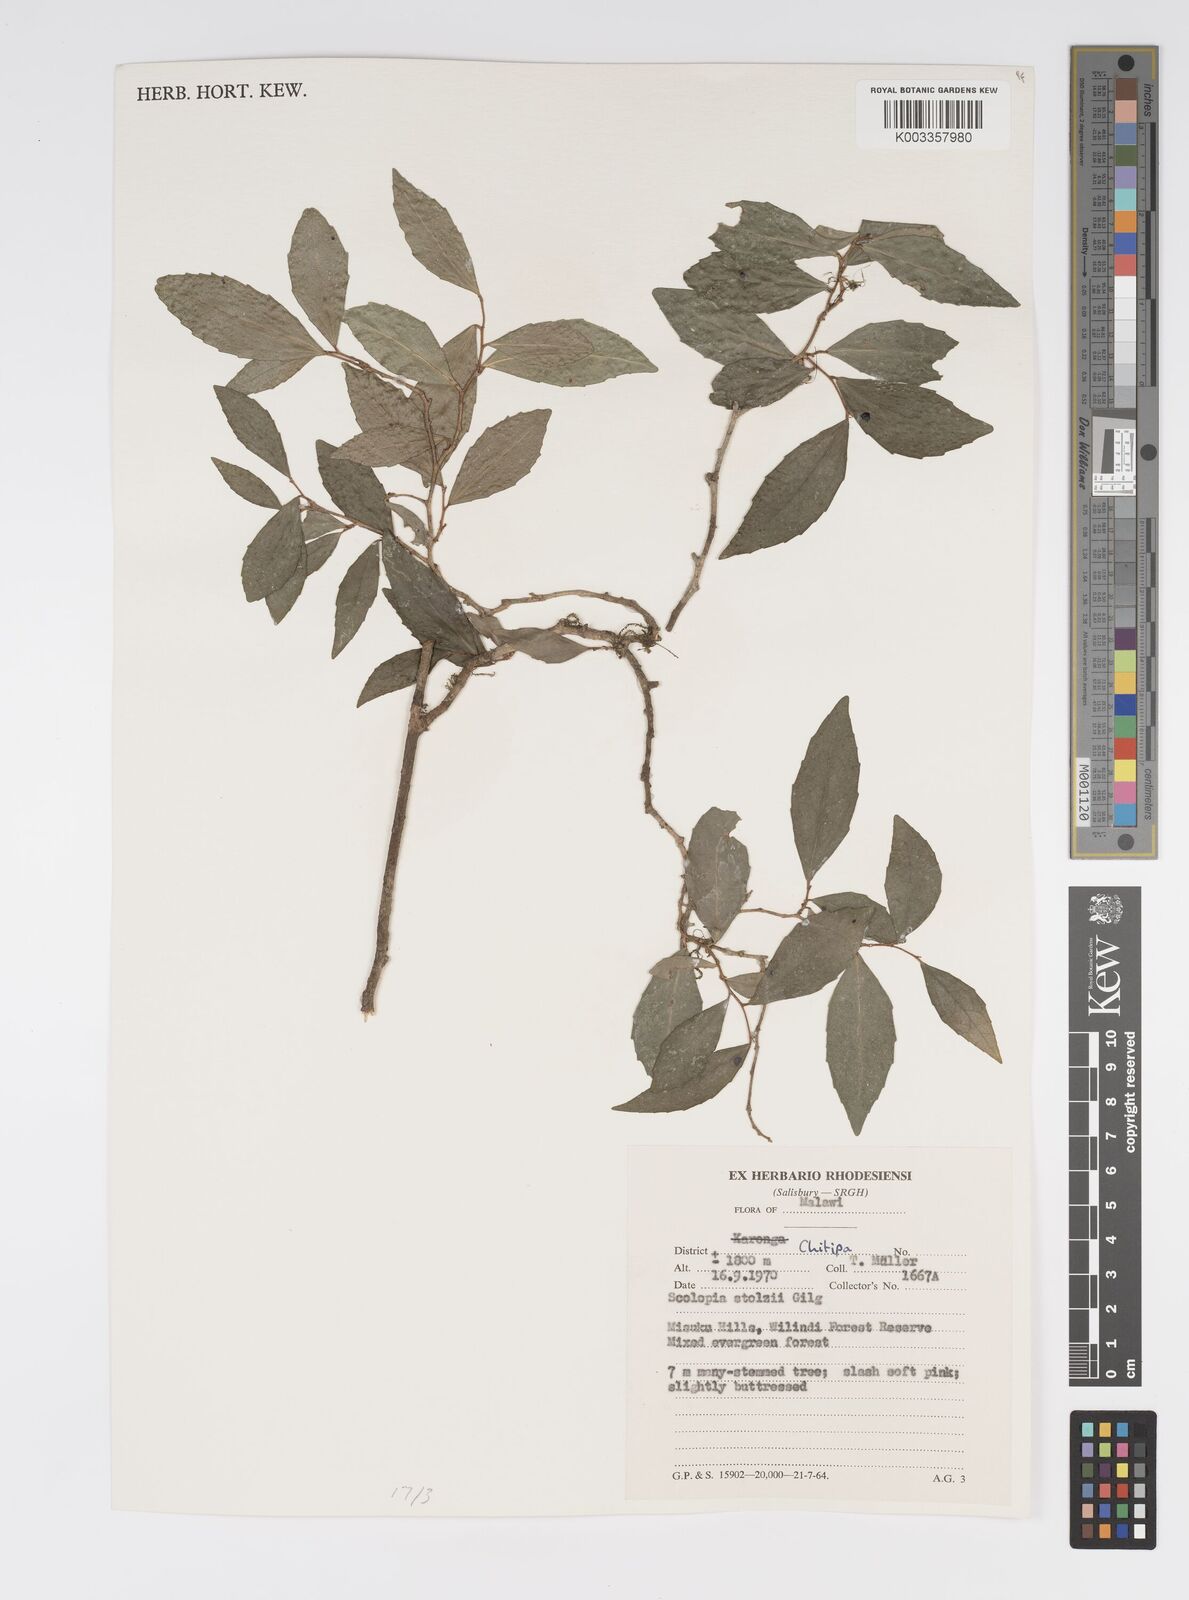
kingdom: Plantae
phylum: Tracheophyta
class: Magnoliopsida
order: Malpighiales
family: Salicaceae
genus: Scolopia
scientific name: Scolopia stolzii
